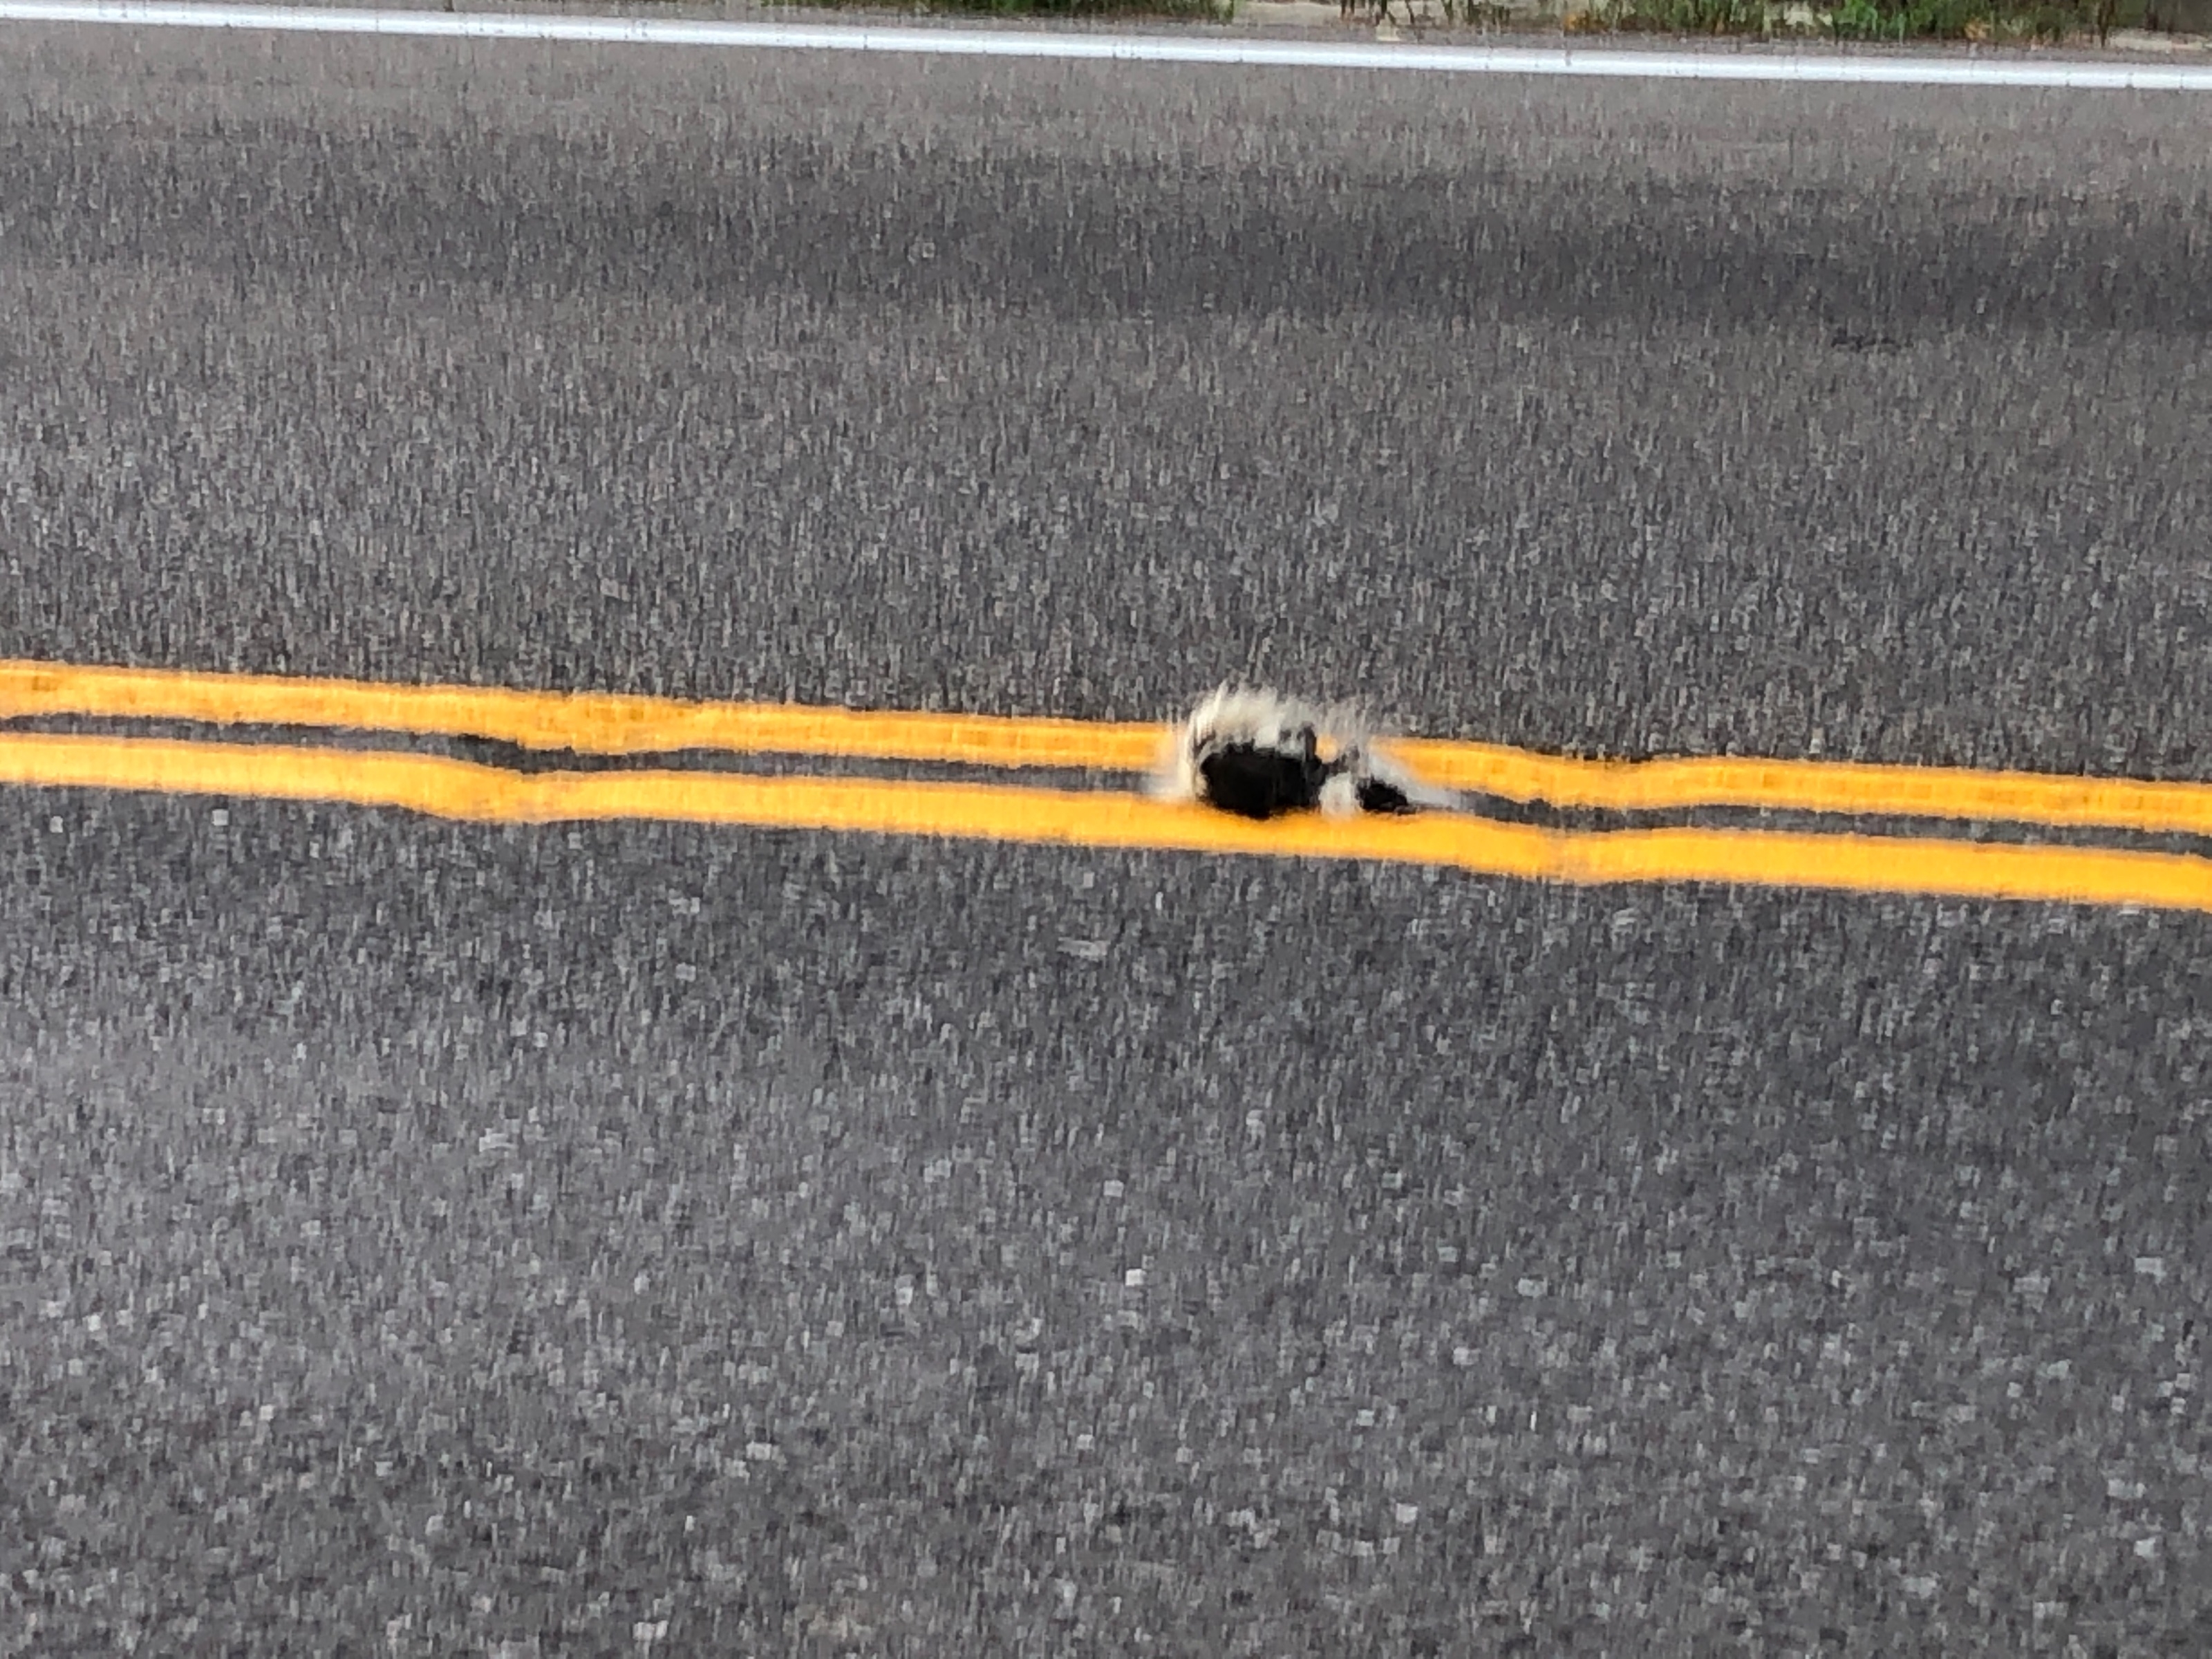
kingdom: Animalia
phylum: Chordata
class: Mammalia
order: Carnivora
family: Mephitidae
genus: Mephitis
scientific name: Mephitis mephitis
